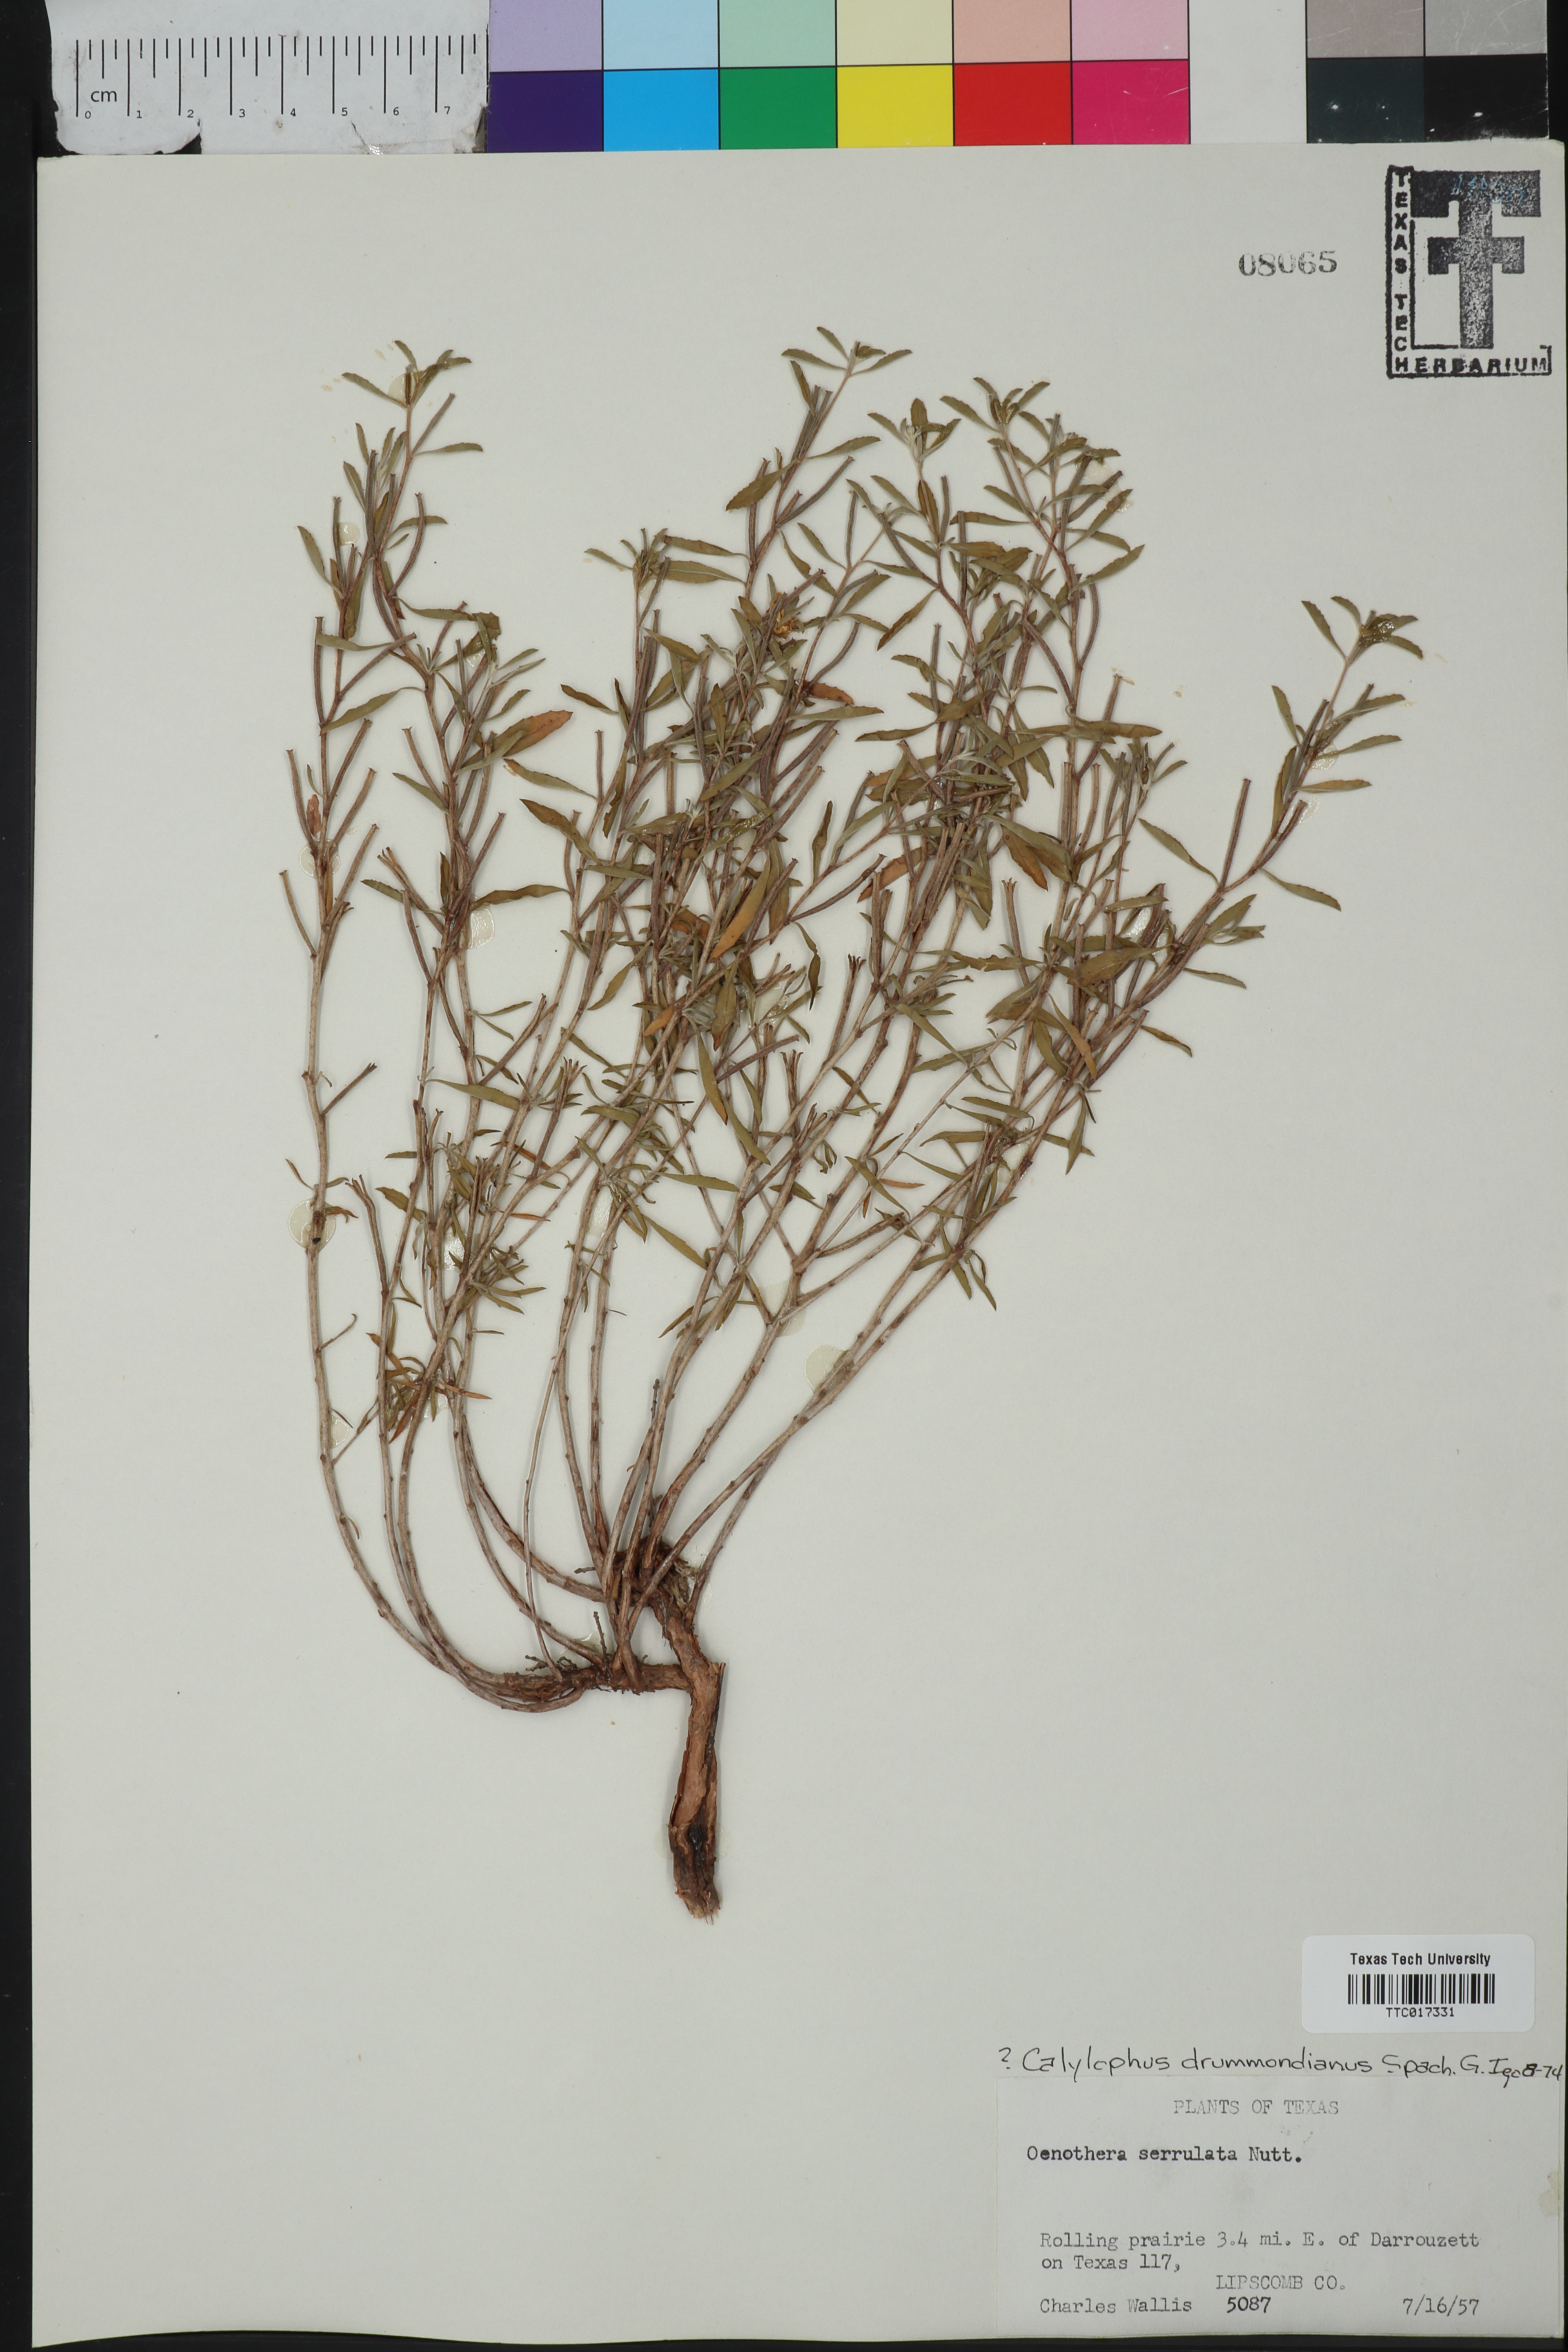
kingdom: Plantae
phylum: Tracheophyta
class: Magnoliopsida
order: Myrtales
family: Onagraceae
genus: Oenothera
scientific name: Oenothera serrulata
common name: Half-shrub calylophus
